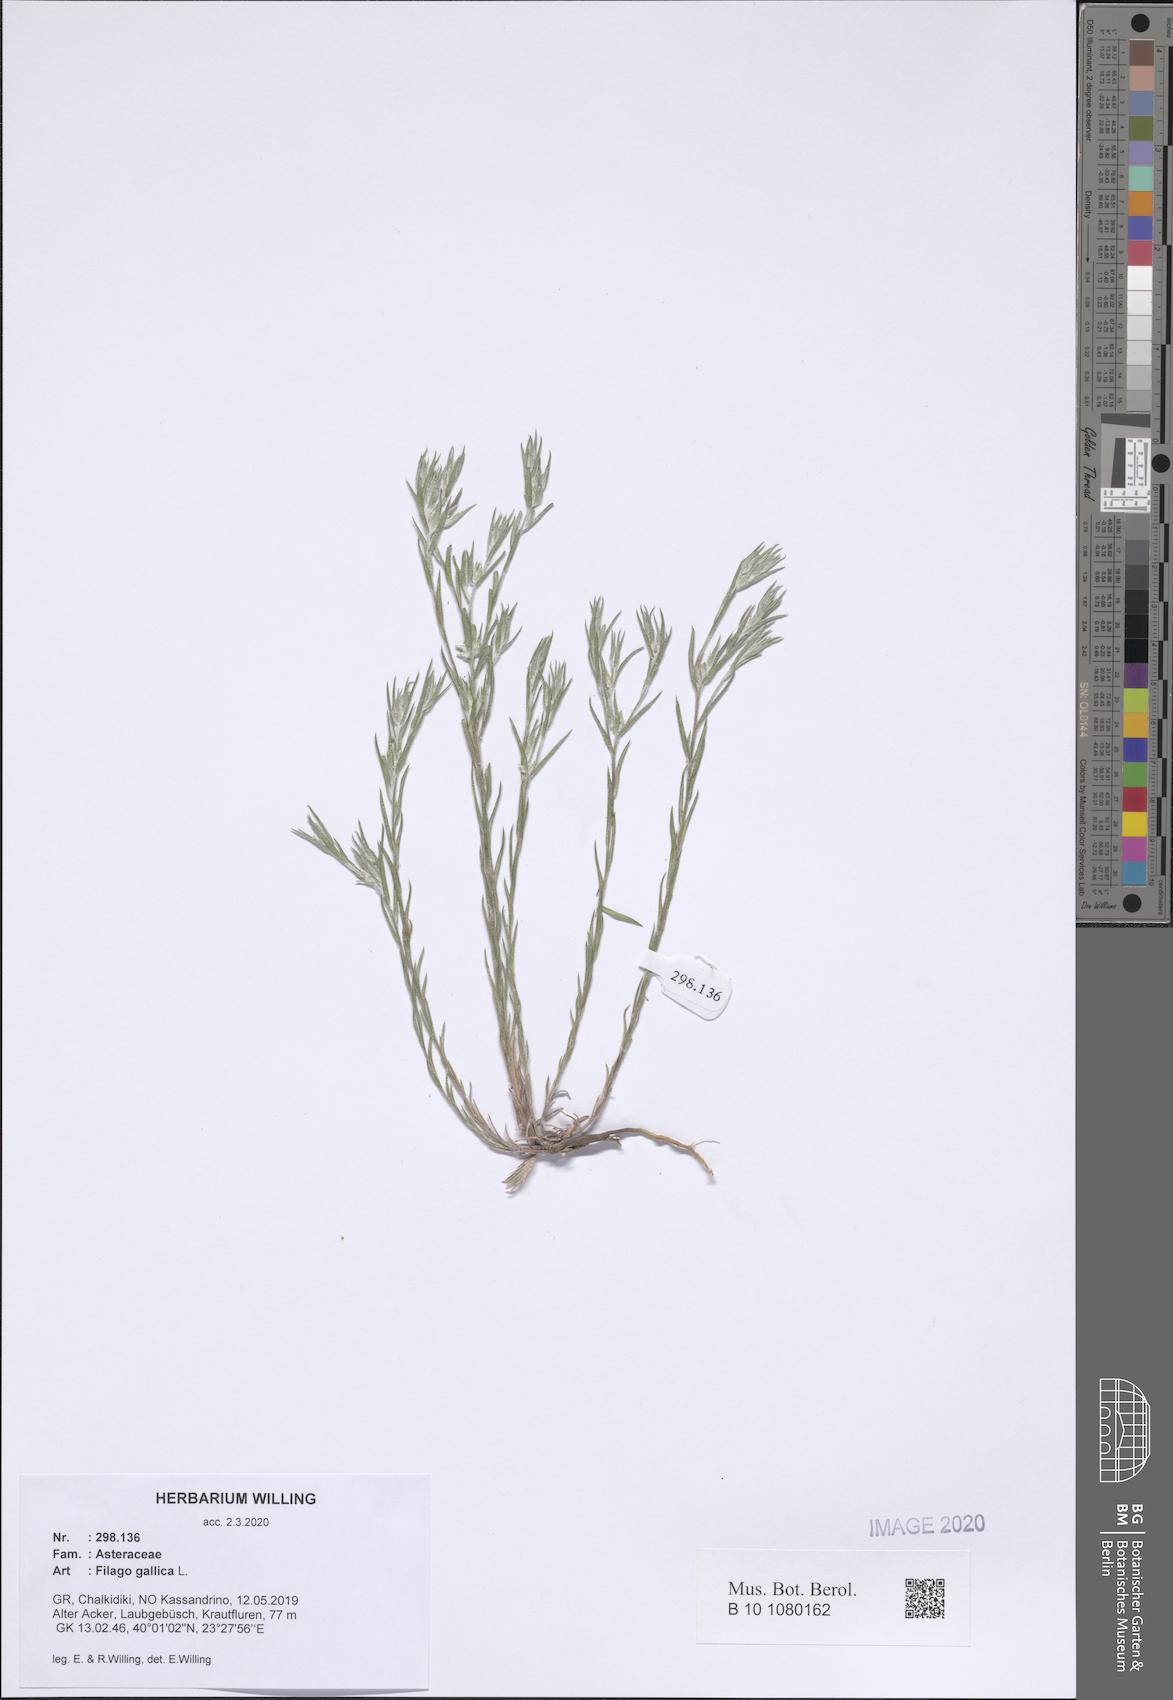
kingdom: Plantae
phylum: Tracheophyta
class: Magnoliopsida
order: Asterales
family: Asteraceae
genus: Logfia
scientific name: Logfia gallica
